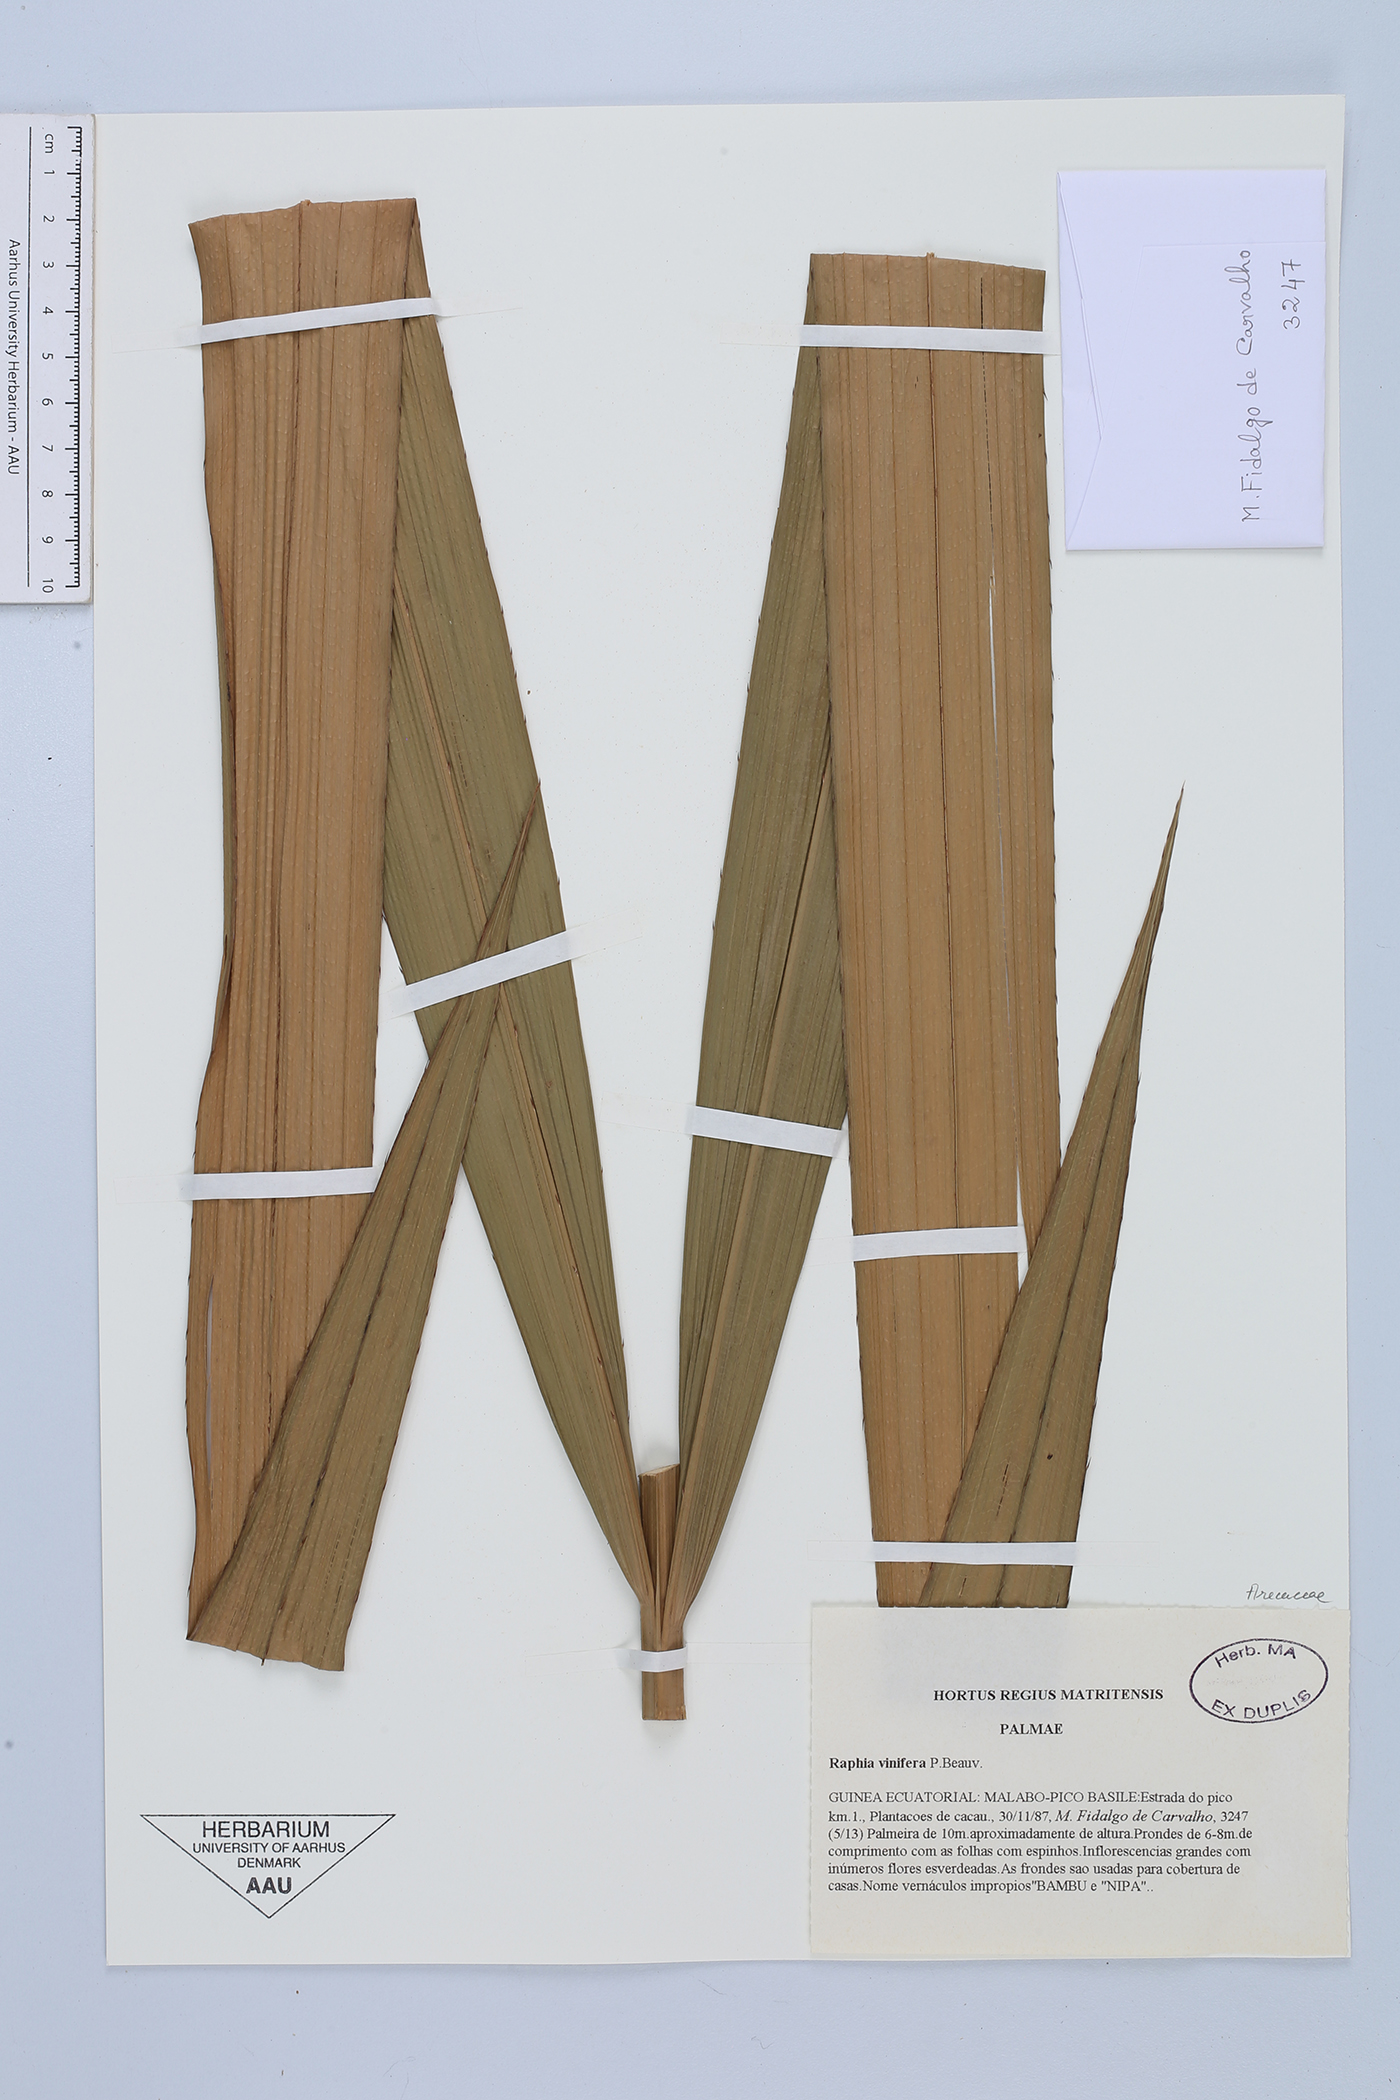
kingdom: Plantae
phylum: Tracheophyta
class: Liliopsida
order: Arecales
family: Arecaceae
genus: Raphia
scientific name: Raphia vinifera
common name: Raphia palm
